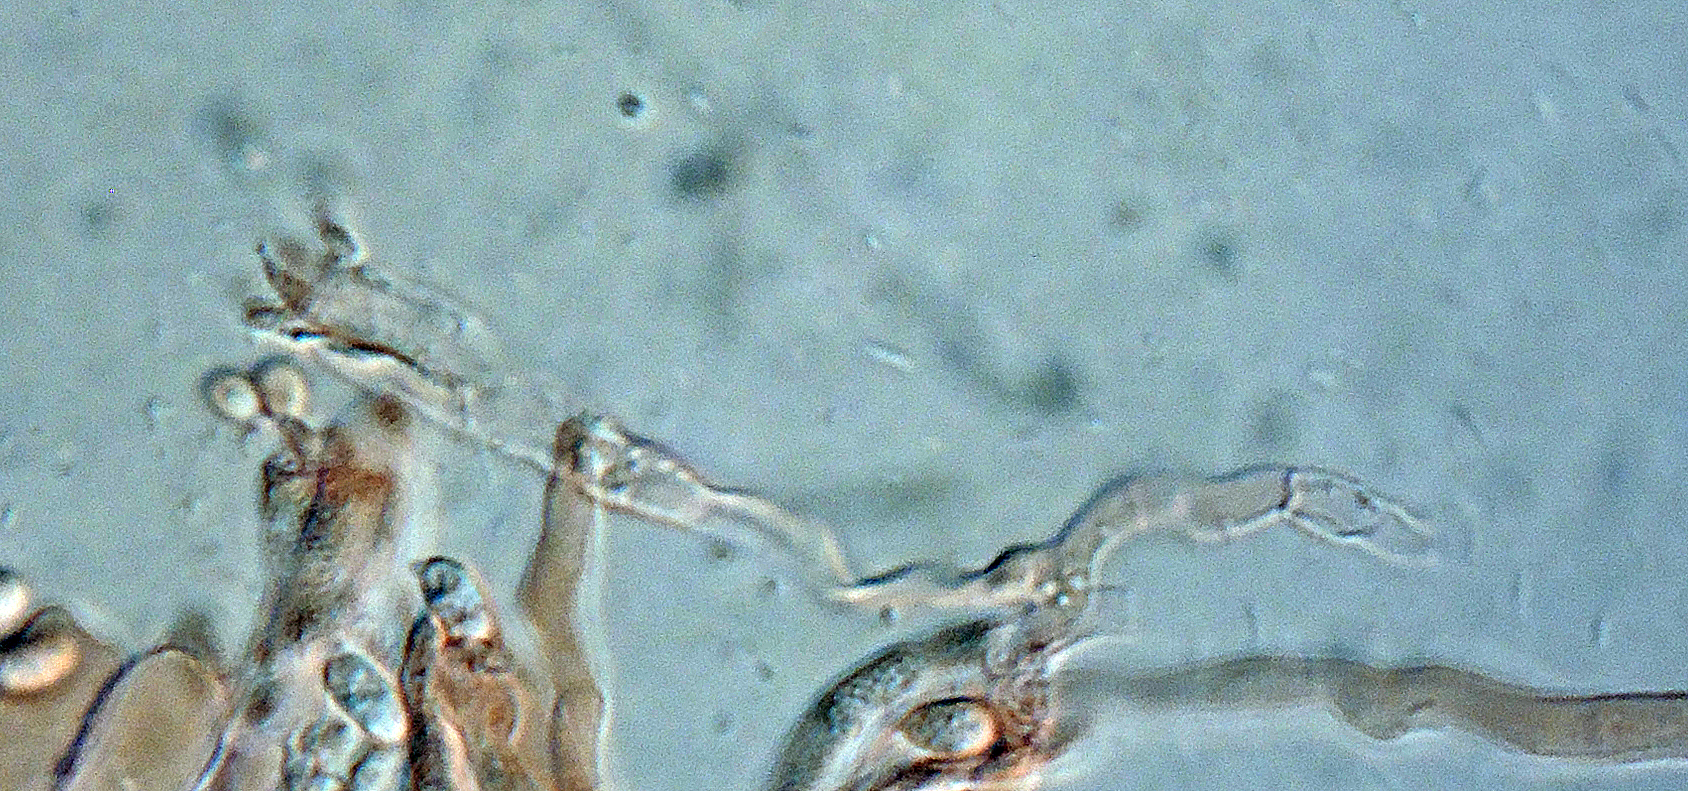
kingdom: Fungi
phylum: Basidiomycota
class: Agaricomycetes
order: Agaricales
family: Clavariaceae
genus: Clavaria
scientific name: Clavaria amoenoides
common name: bleggul køllesvamp
